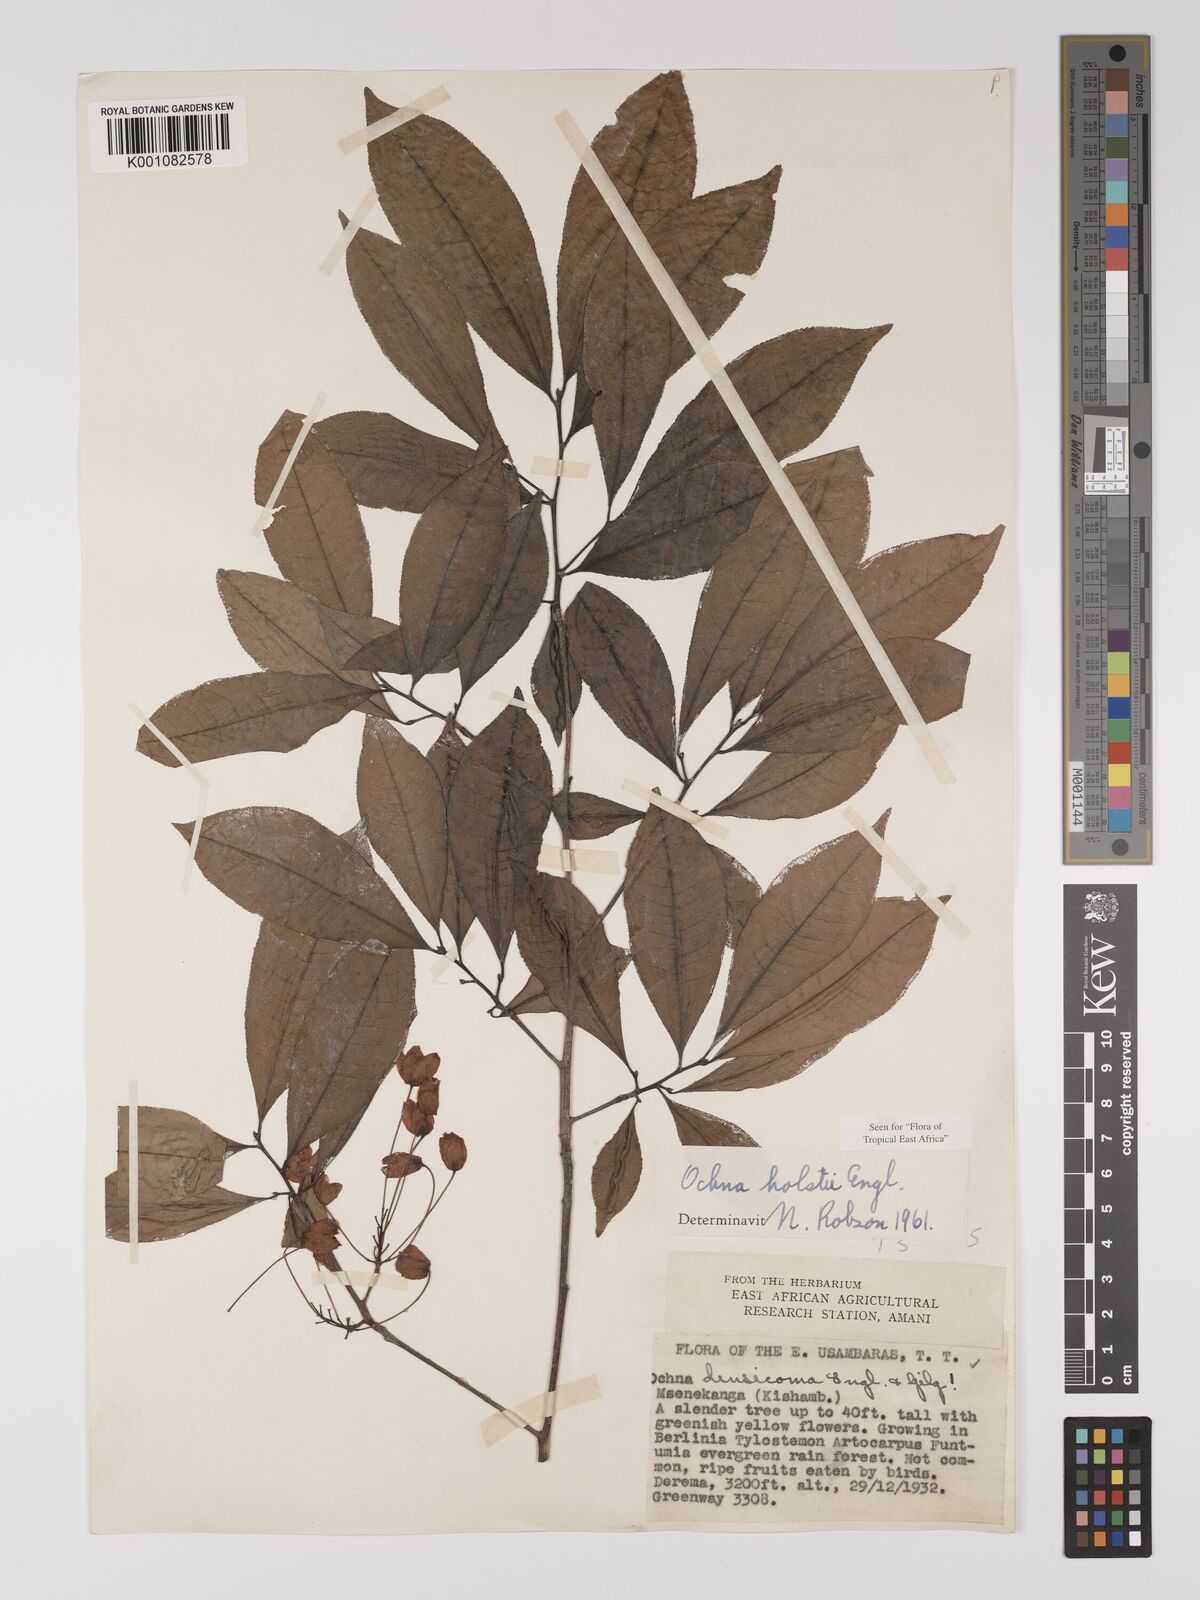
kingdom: Plantae
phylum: Tracheophyta
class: Magnoliopsida
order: Malpighiales
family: Ochnaceae
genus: Ochna
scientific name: Ochna holstii
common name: Red ironwood
